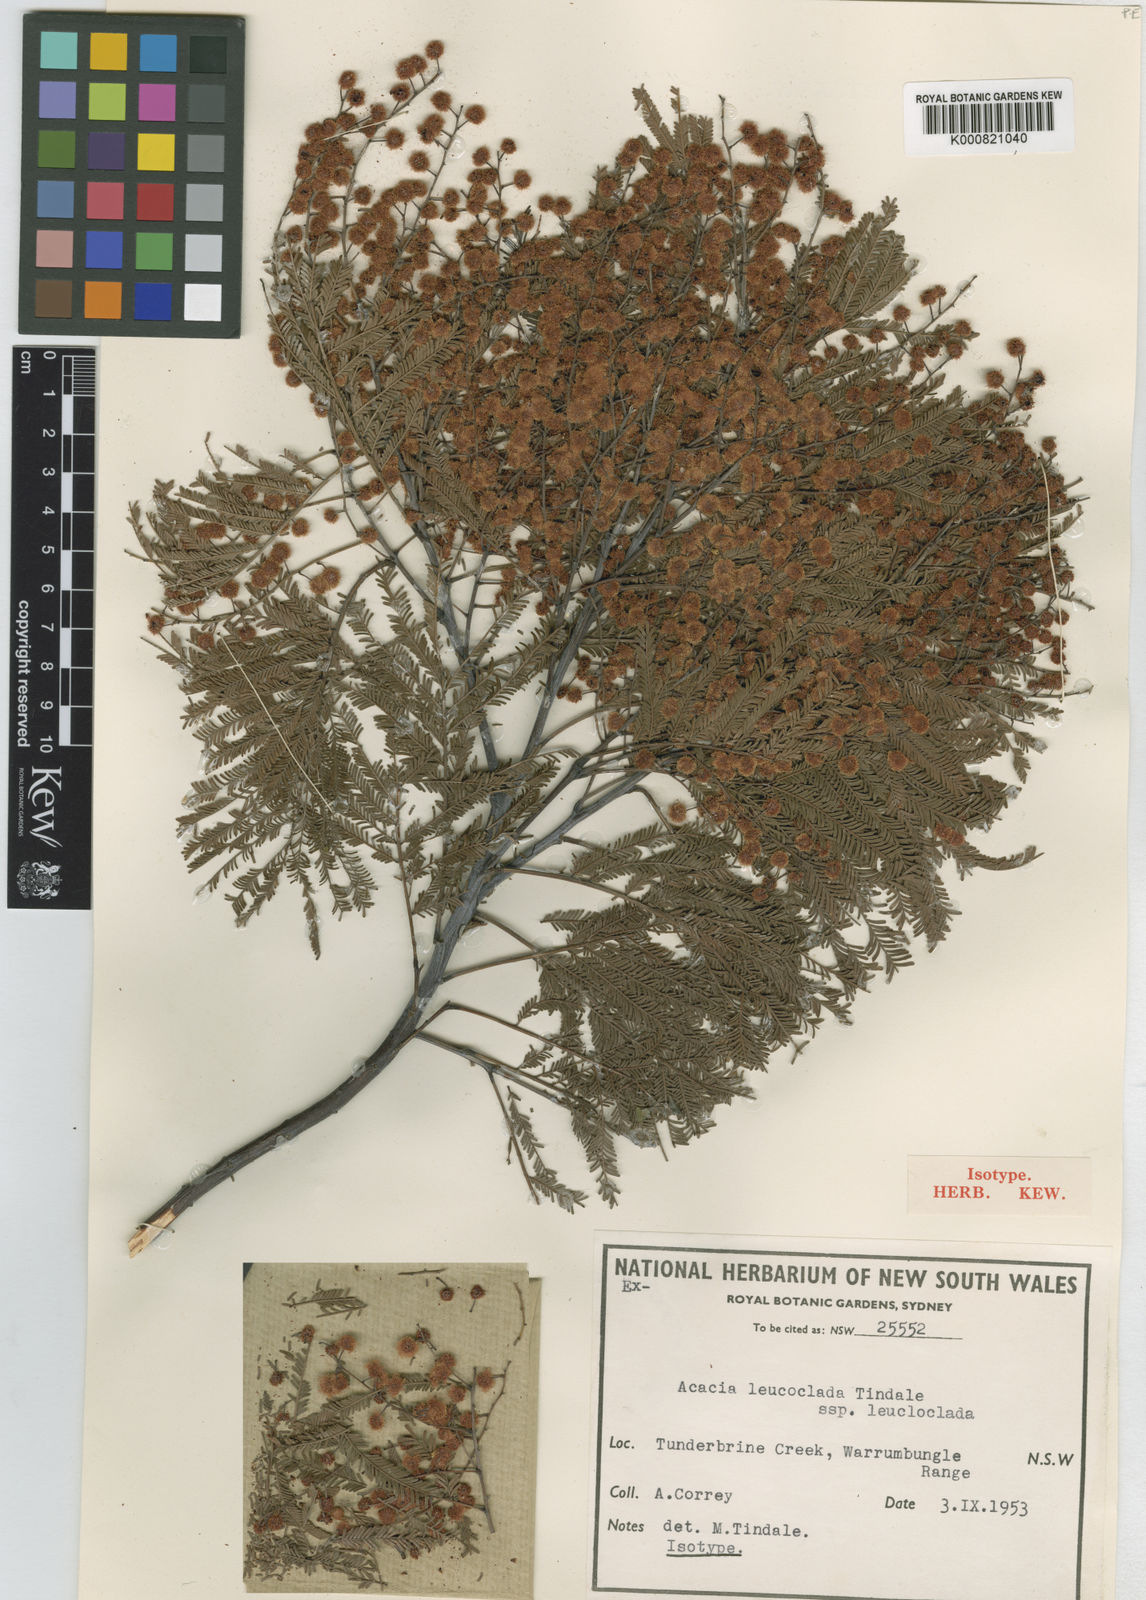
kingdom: Plantae
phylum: Tracheophyta
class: Magnoliopsida
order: Fabales
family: Fabaceae
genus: Acacia
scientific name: Acacia leucoclada
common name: Northern silver wattle
